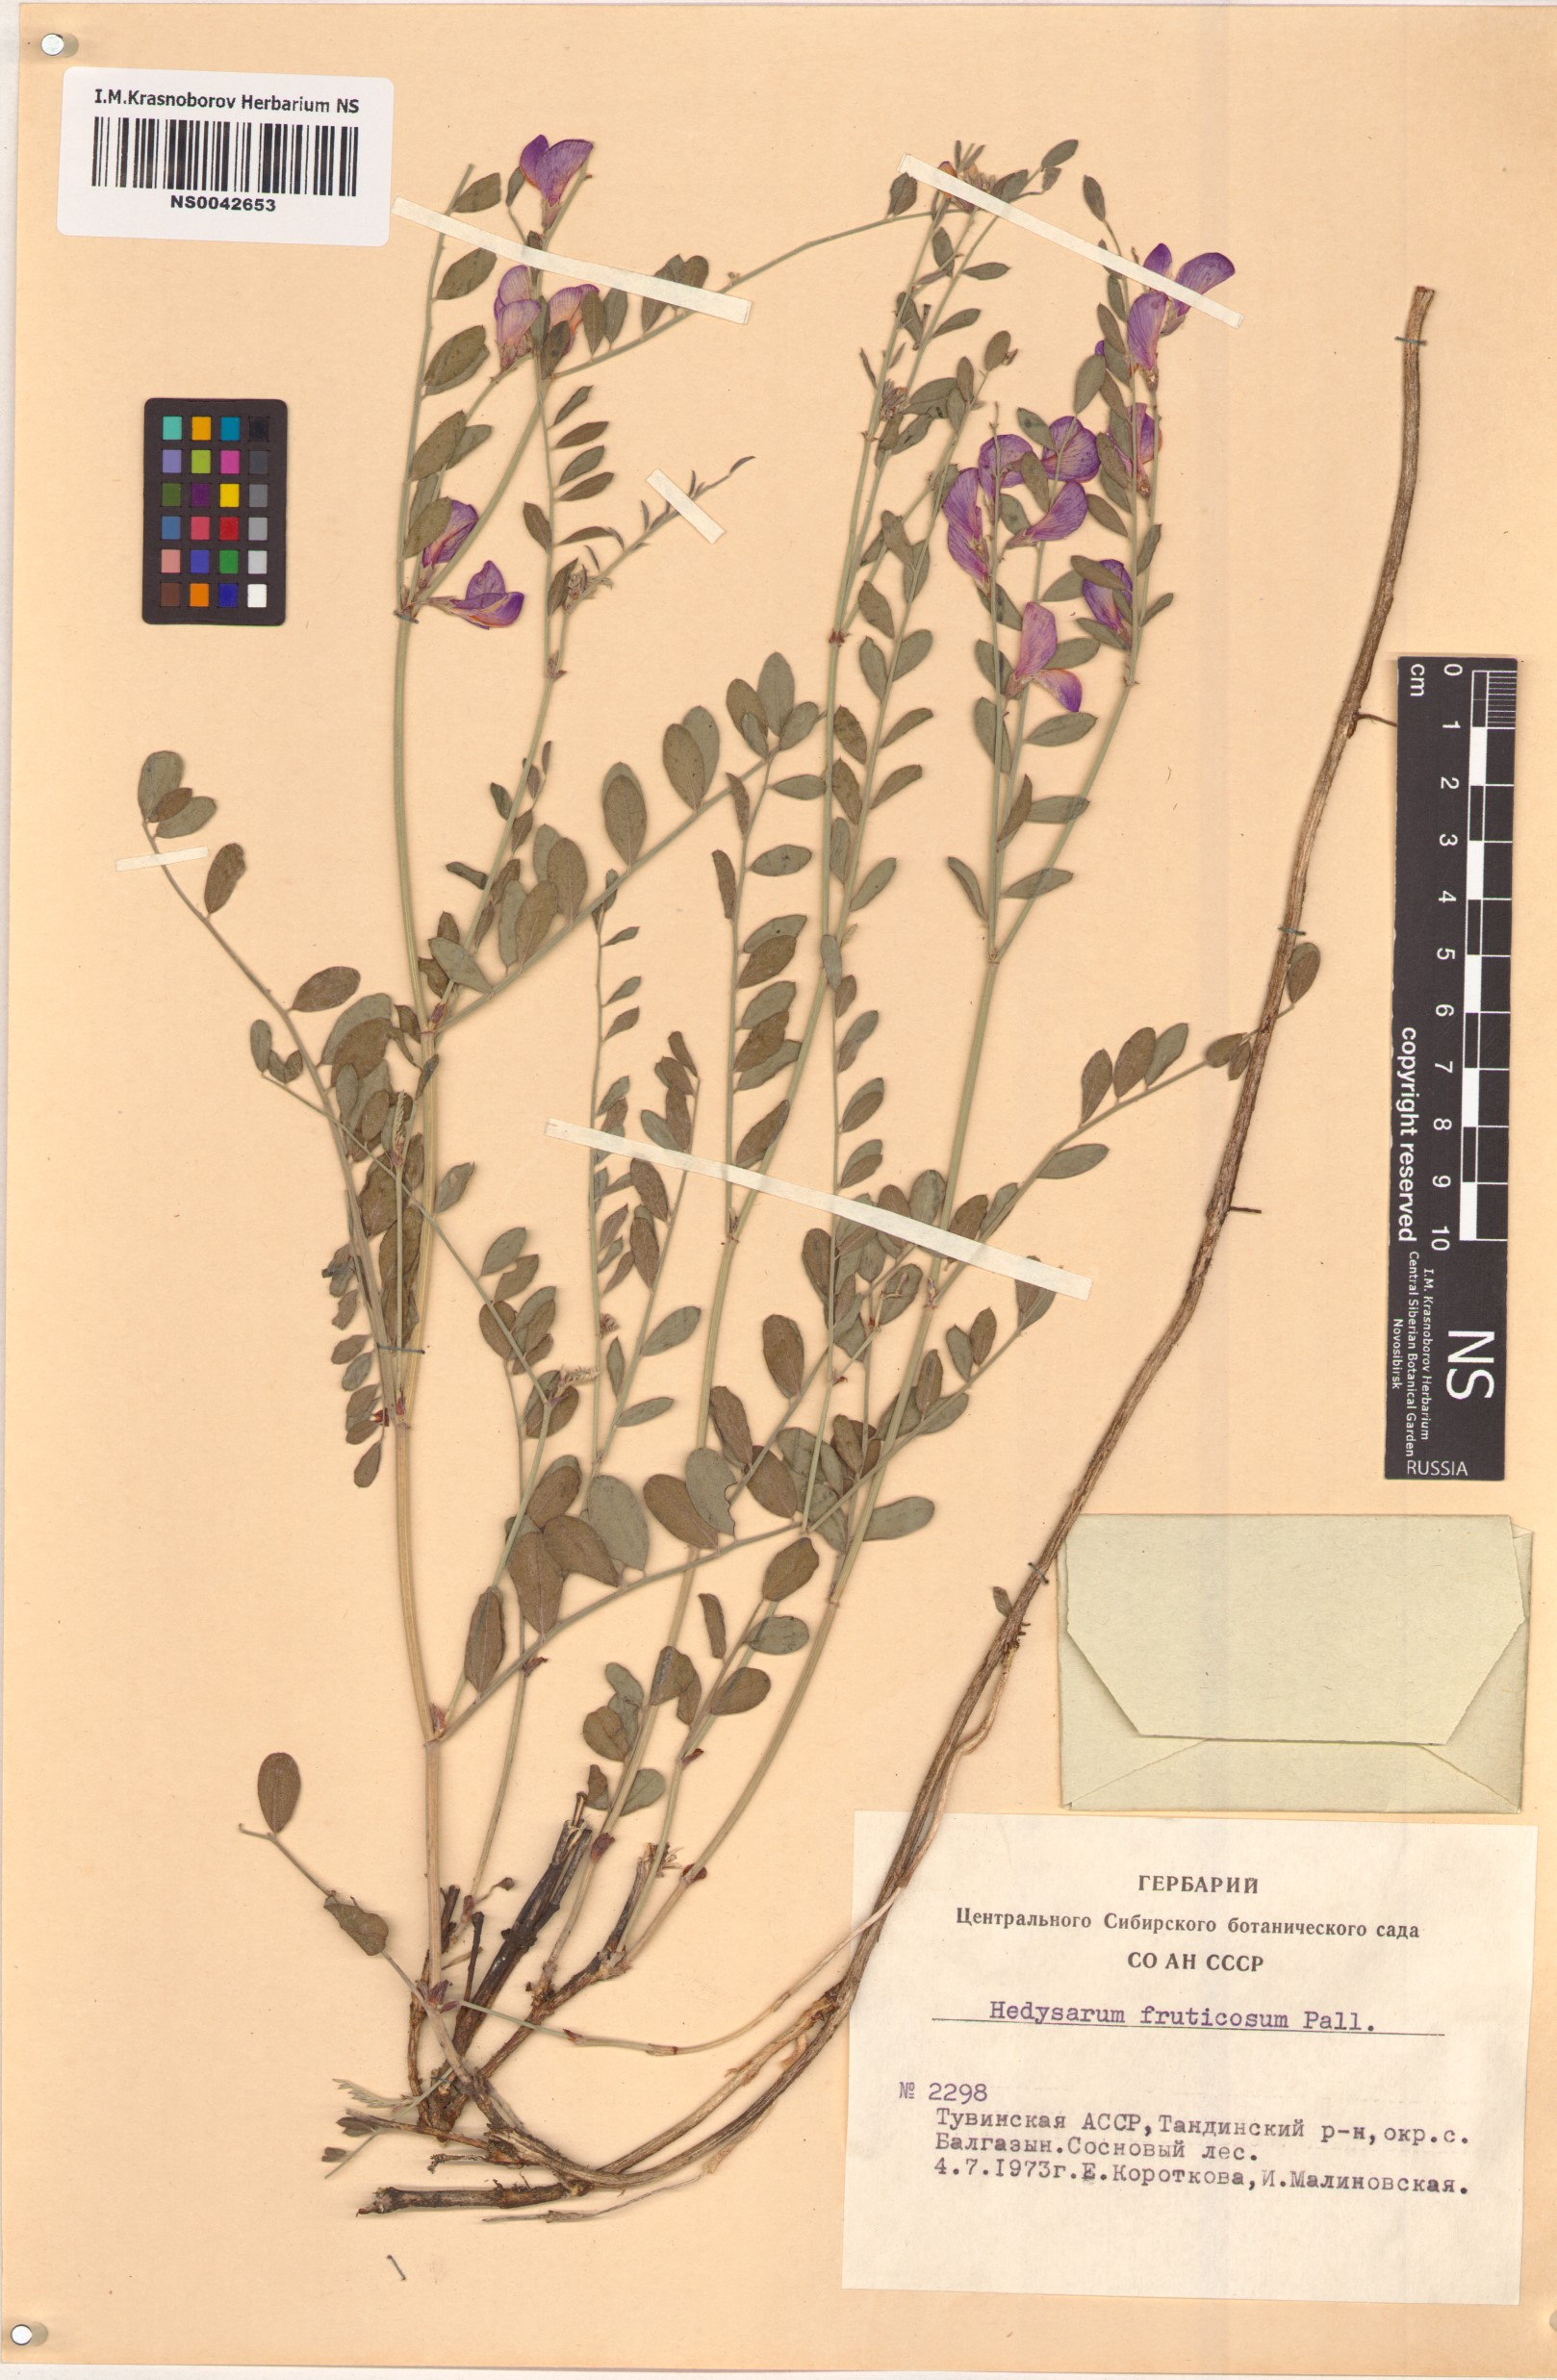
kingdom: Plantae
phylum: Tracheophyta
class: Magnoliopsida
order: Fabales
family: Fabaceae
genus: Corethrodendron
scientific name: Corethrodendron fruticosum
